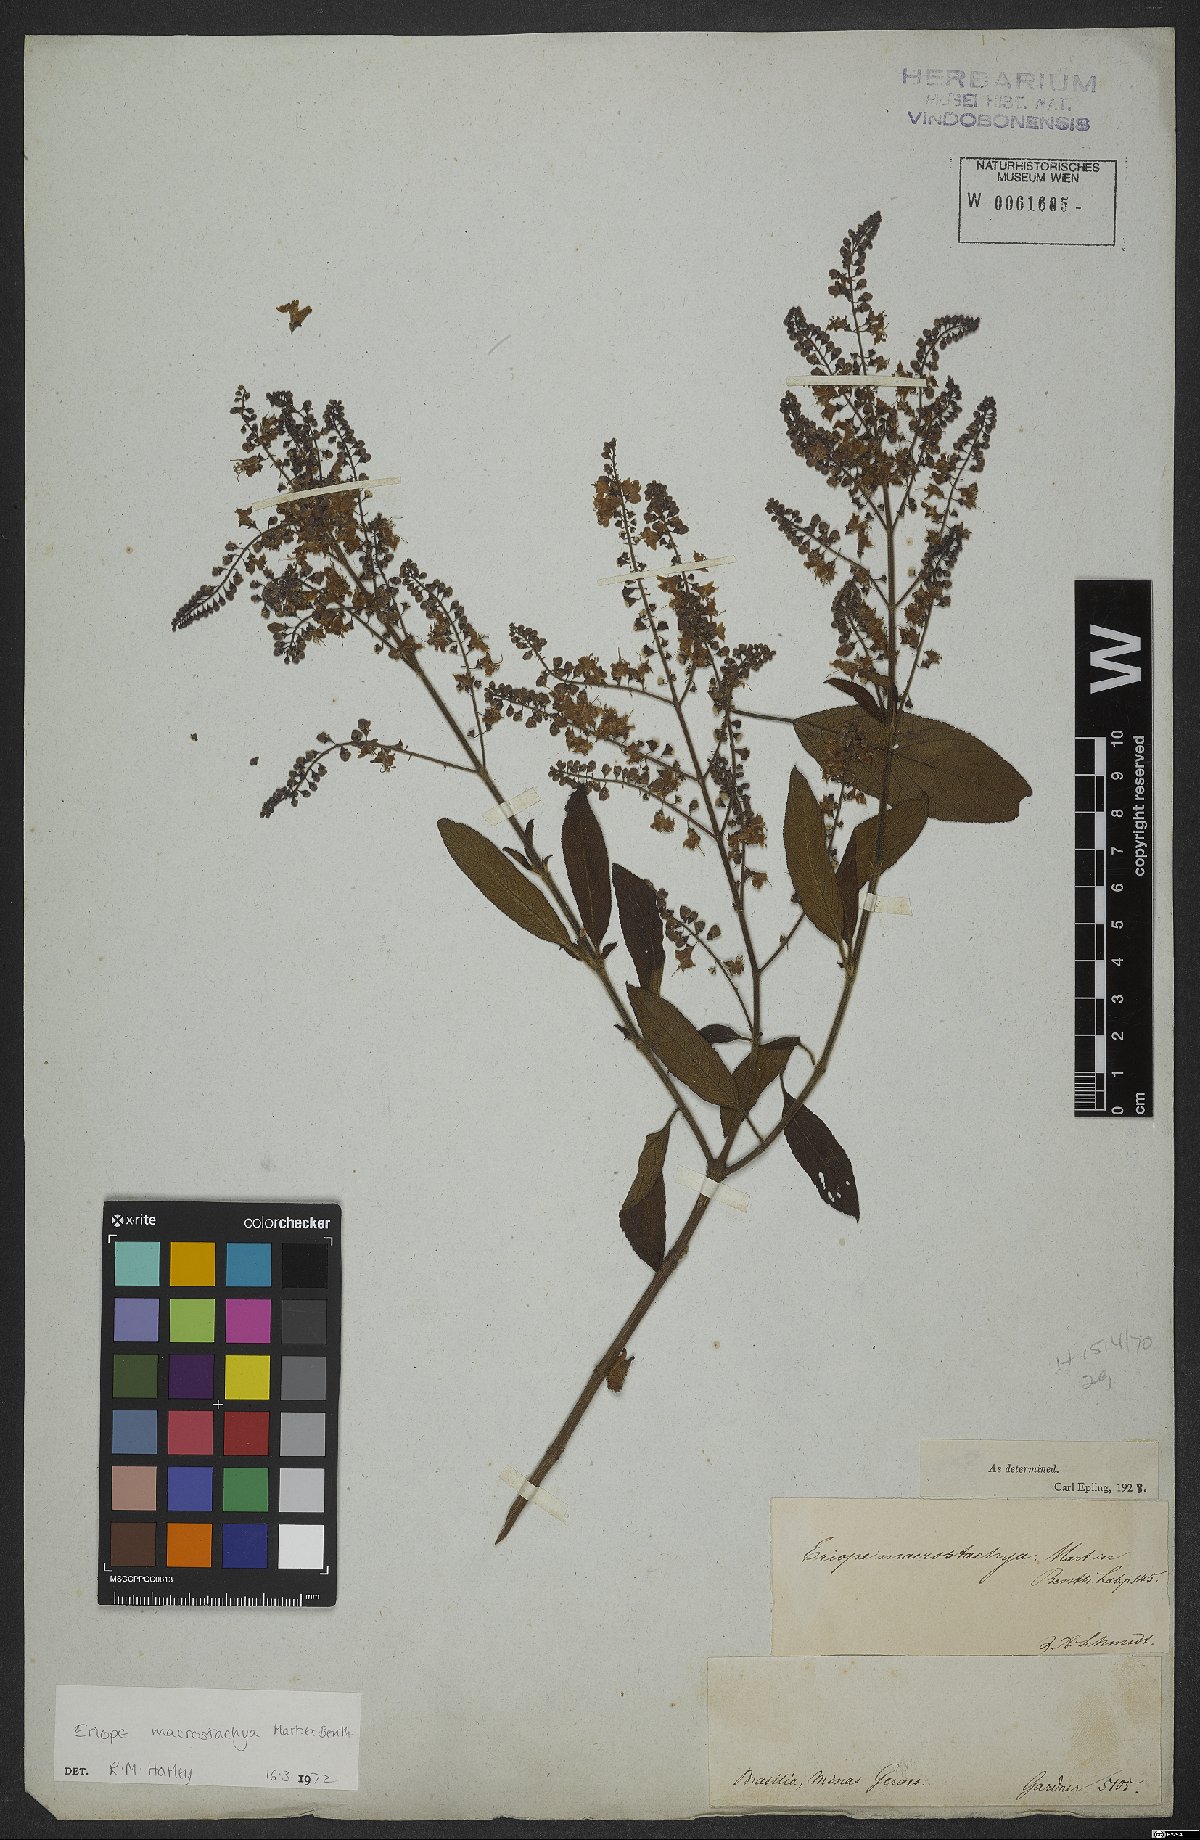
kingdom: Plantae
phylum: Tracheophyta
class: Magnoliopsida
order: Lamiales
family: Lamiaceae
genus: Eriope
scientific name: Eriope macrostachya
